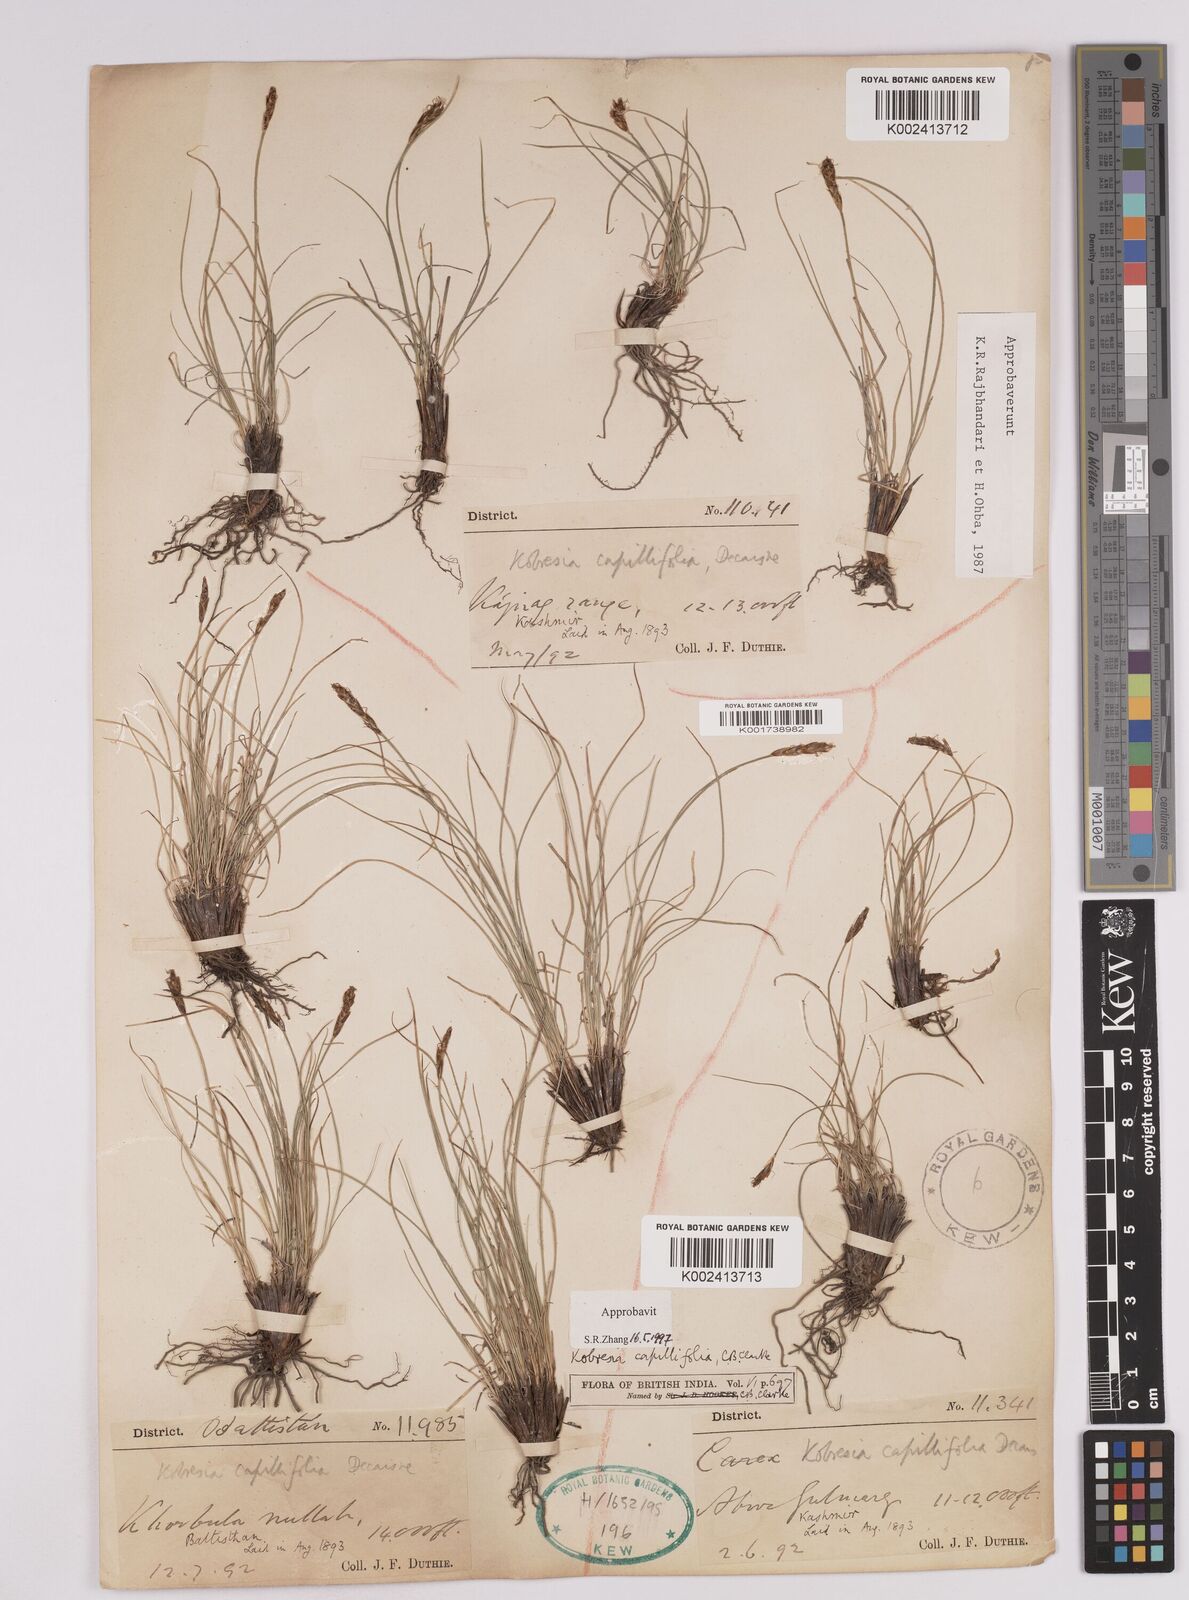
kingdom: Plantae
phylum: Tracheophyta
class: Liliopsida
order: Poales
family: Cyperaceae
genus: Carex
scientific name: Carex capillifolia
